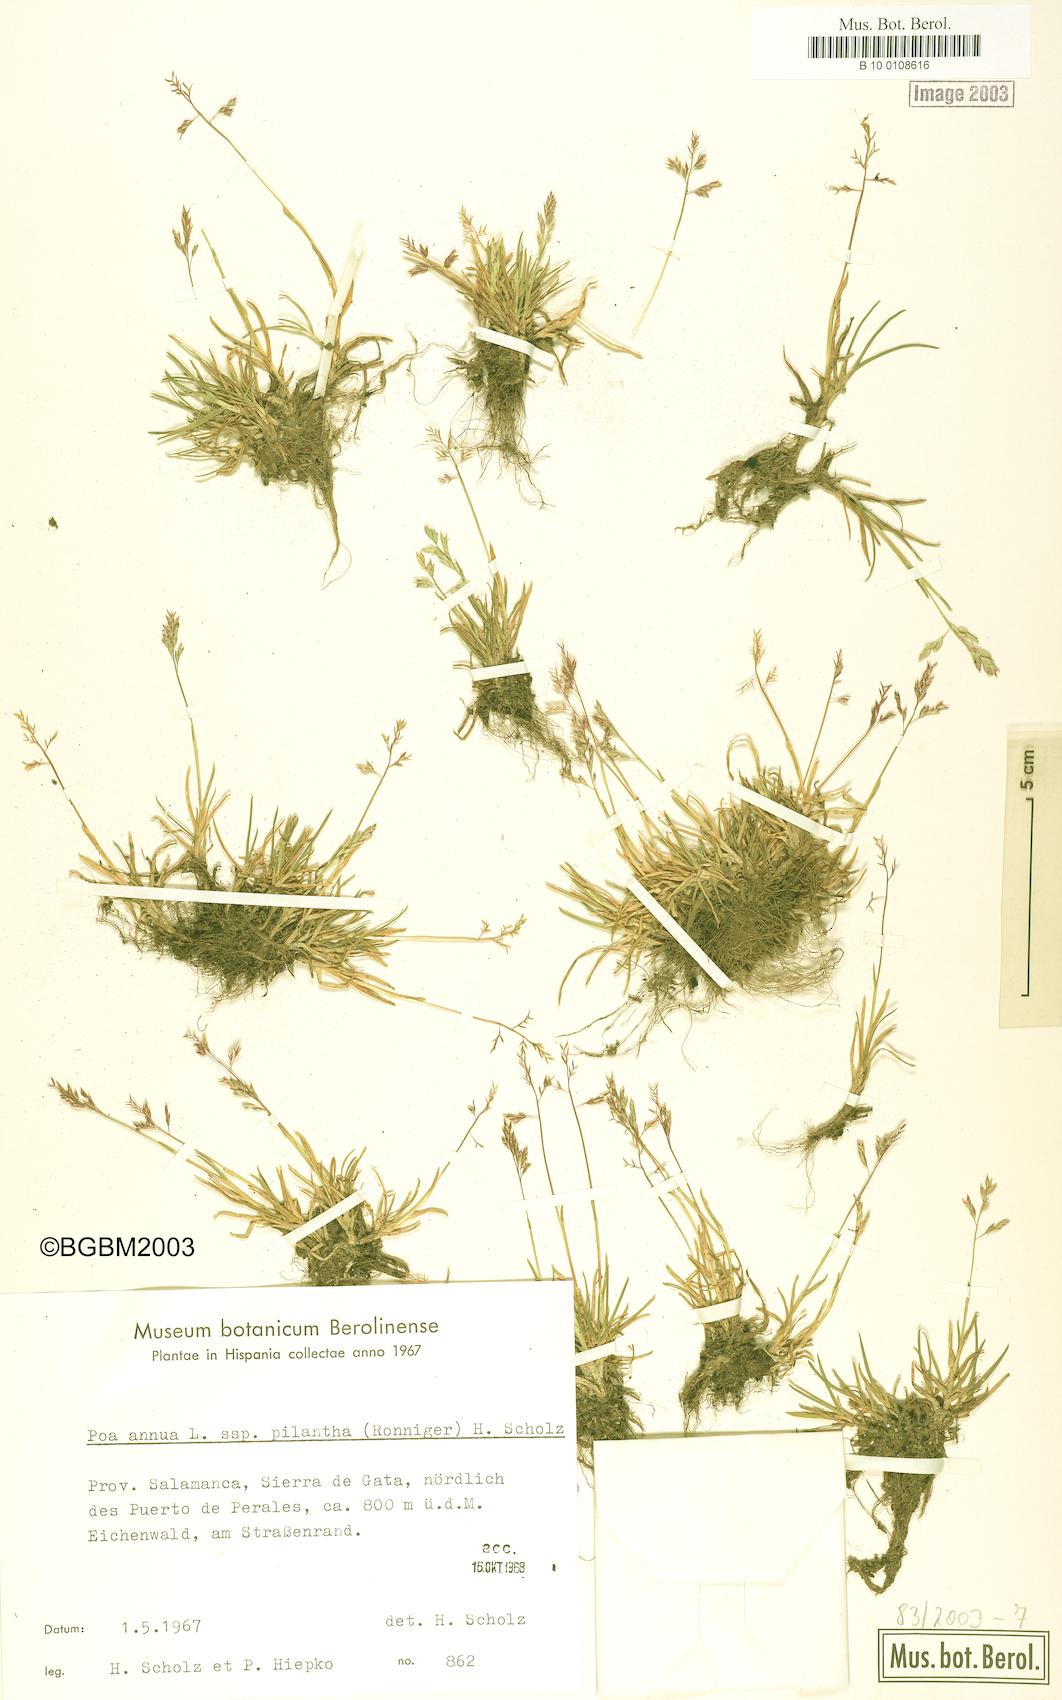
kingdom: Plantae
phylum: Tracheophyta
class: Liliopsida
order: Poales
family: Poaceae
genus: Poa
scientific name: Poa annua
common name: Annual bluegrass
